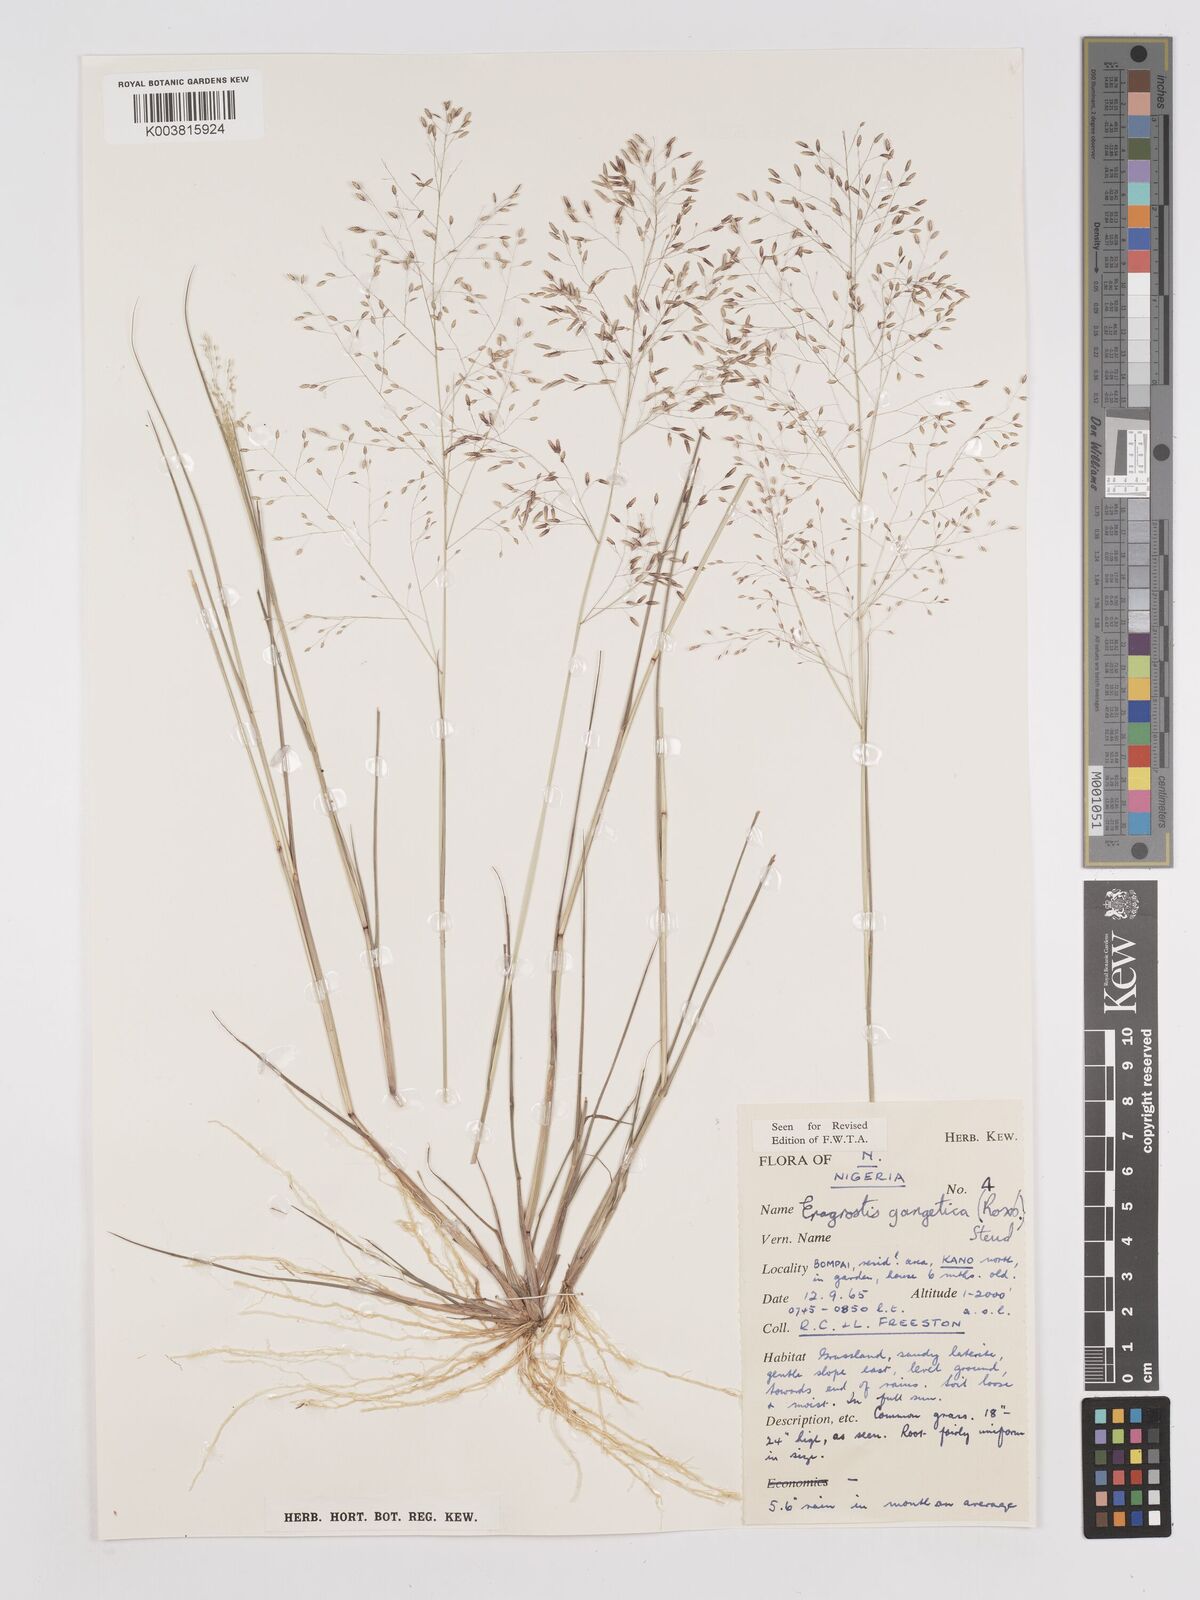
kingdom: Plantae
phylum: Tracheophyta
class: Liliopsida
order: Poales
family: Poaceae
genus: Eragrostis
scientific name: Eragrostis gangetica
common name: Slimflower lovegrass
